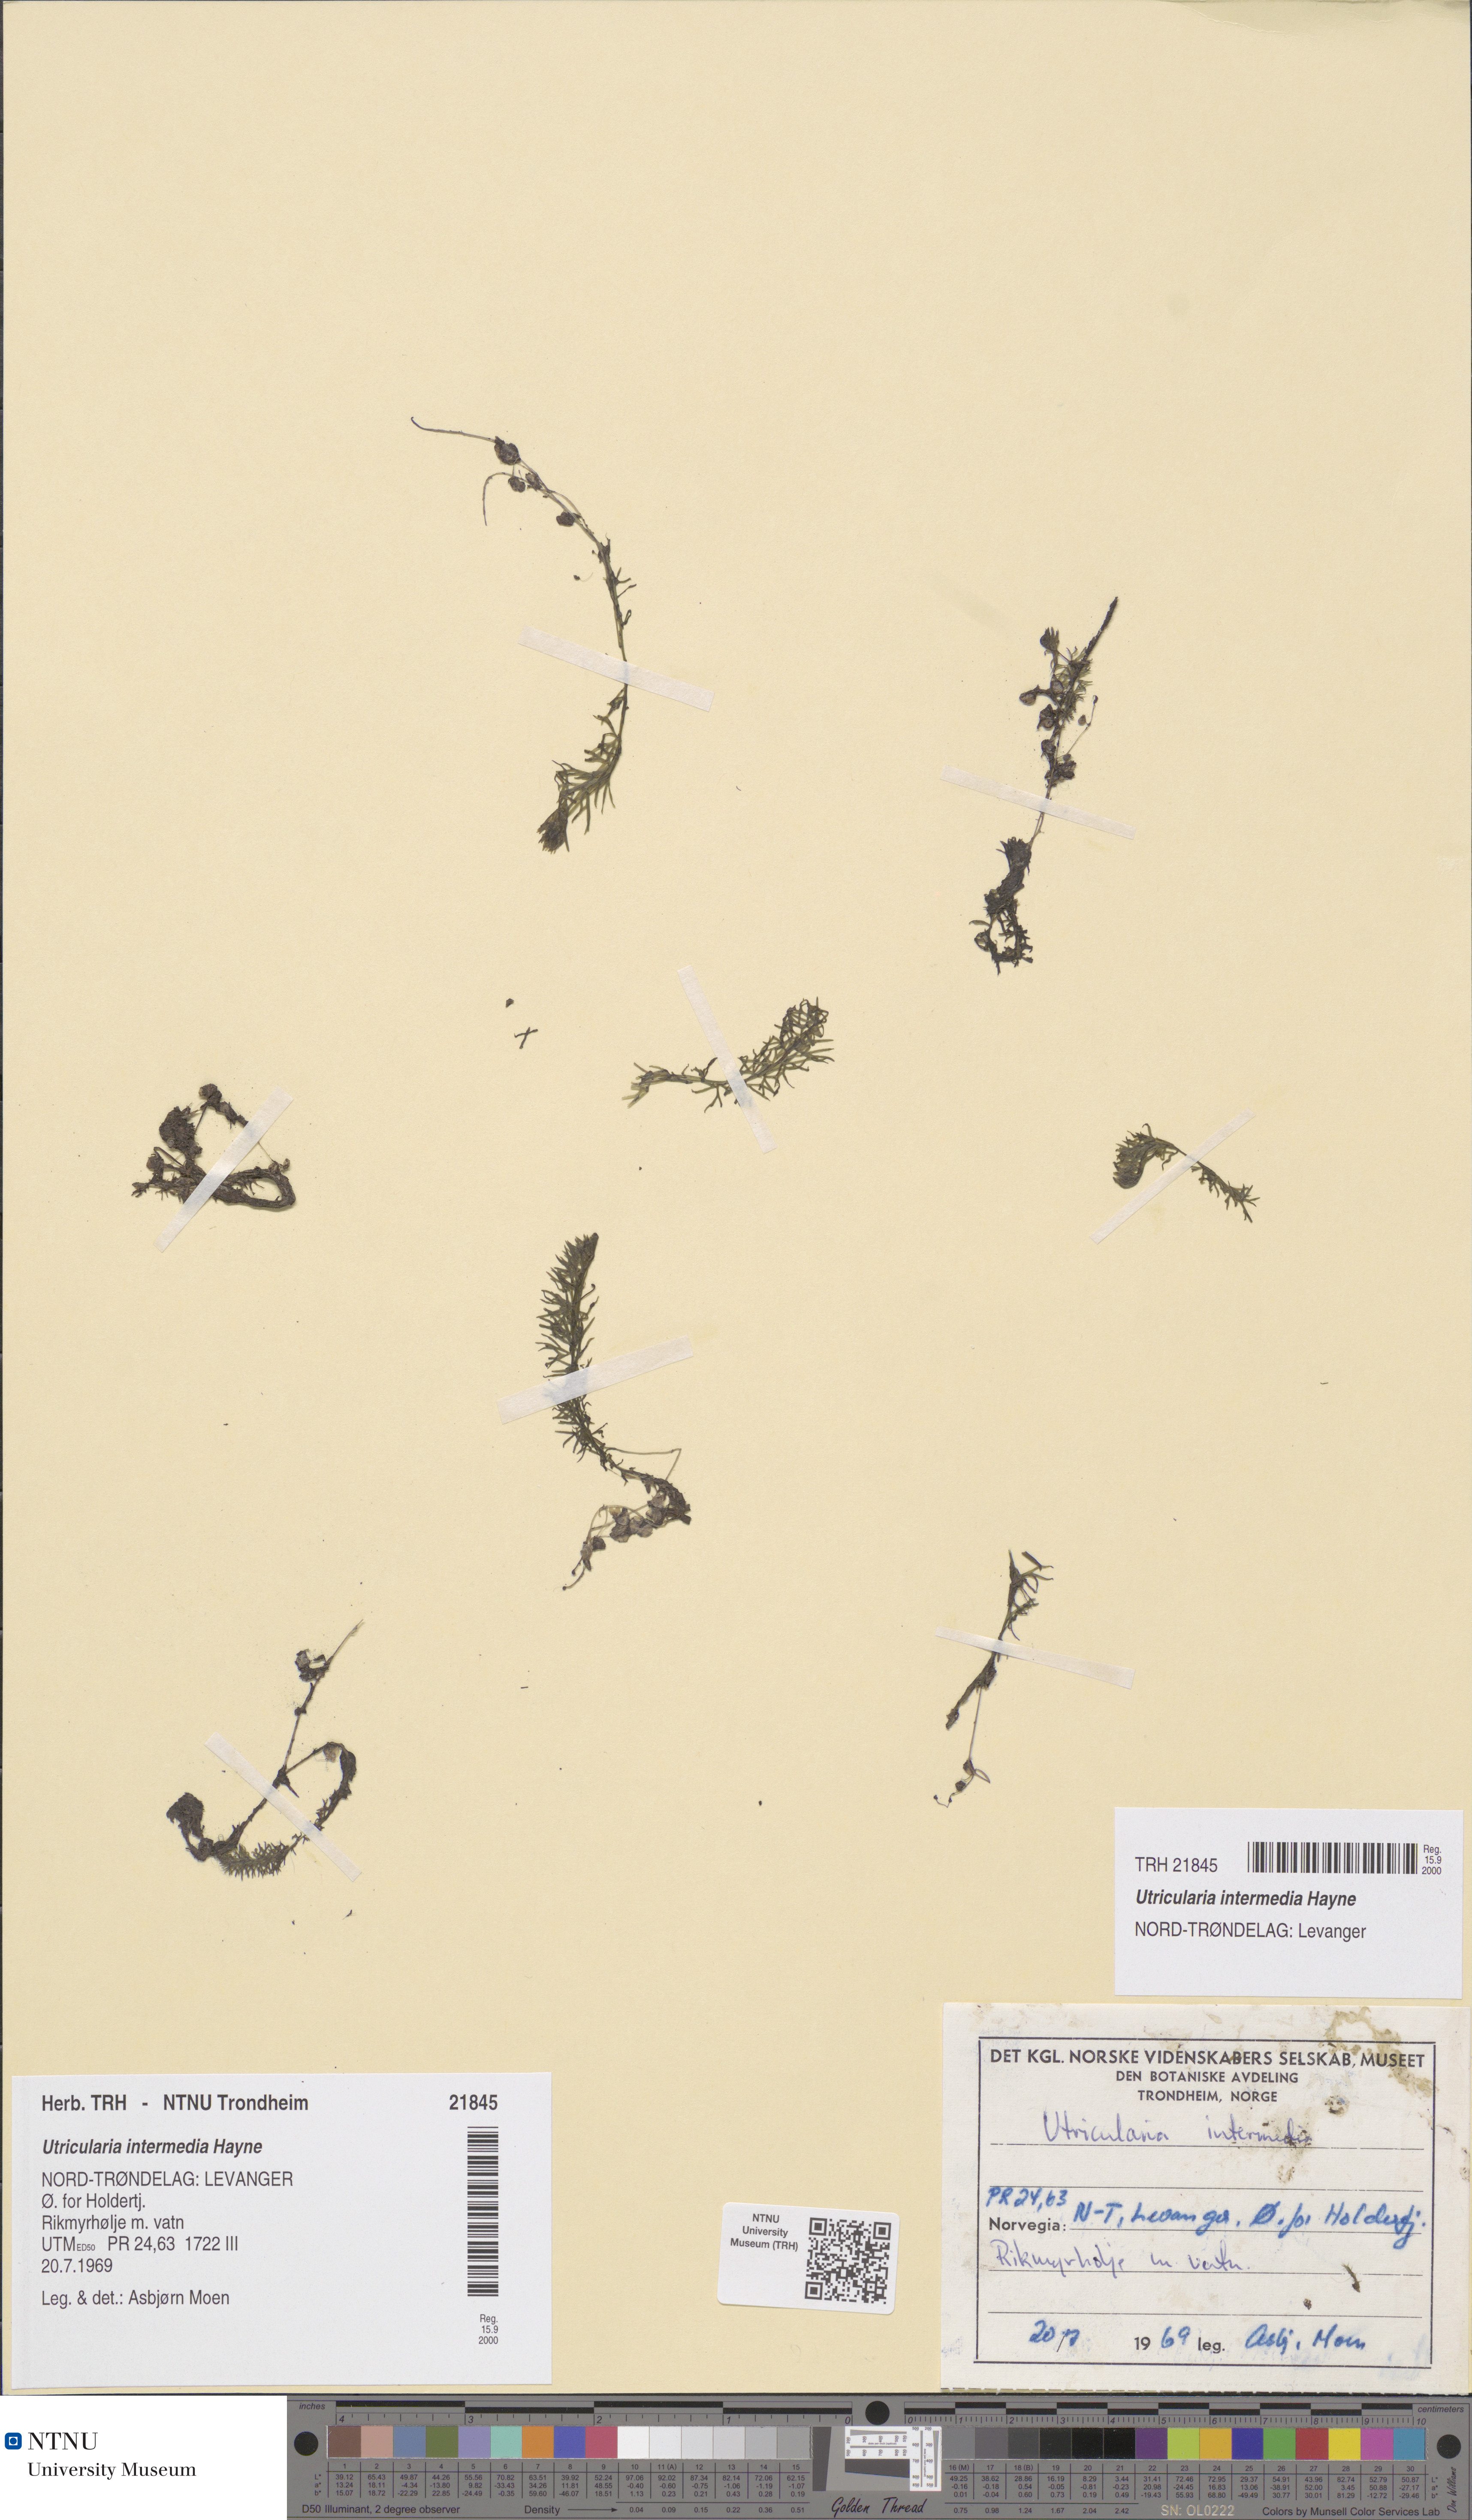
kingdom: Plantae
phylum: Tracheophyta
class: Magnoliopsida
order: Lamiales
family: Lentibulariaceae
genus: Utricularia
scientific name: Utricularia intermedia
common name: Intermediate bladderwort
